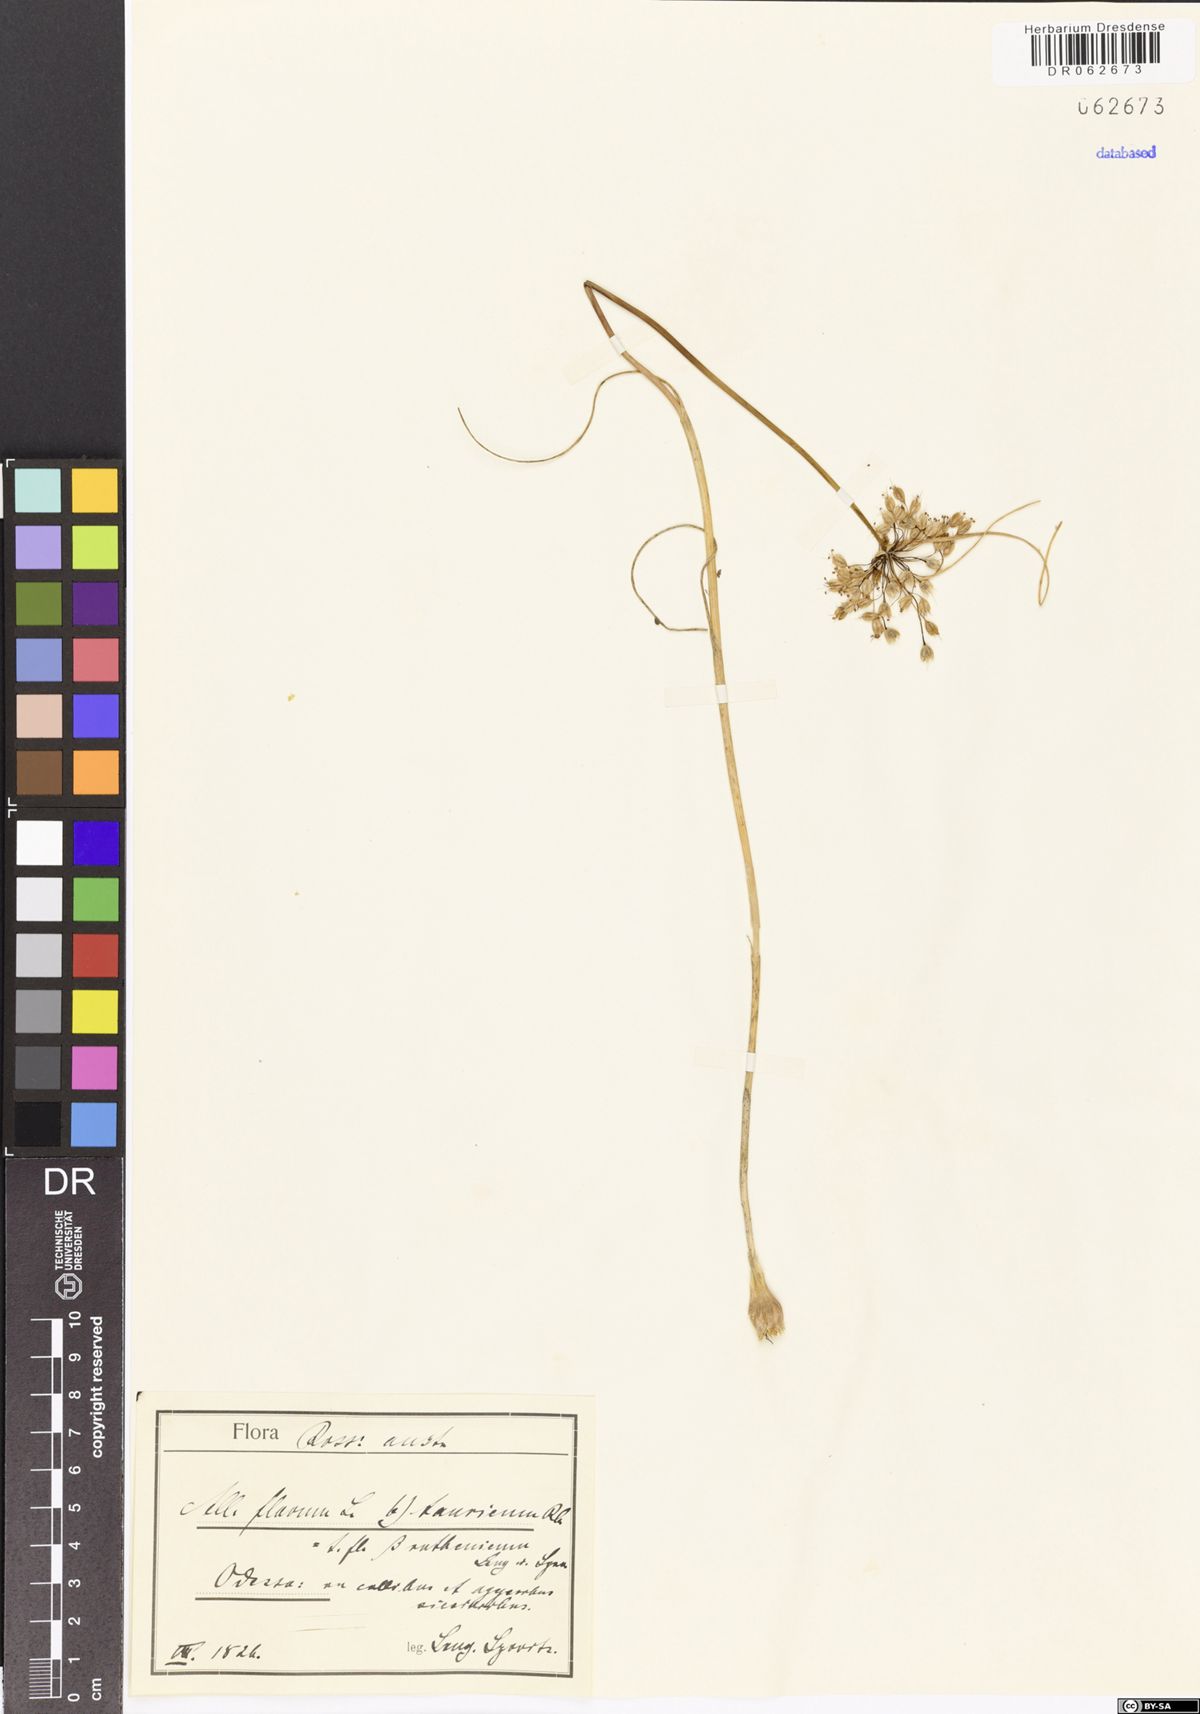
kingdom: Plantae
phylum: Tracheophyta
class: Liliopsida
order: Asparagales
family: Amaryllidaceae
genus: Allium
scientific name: Allium flavum
